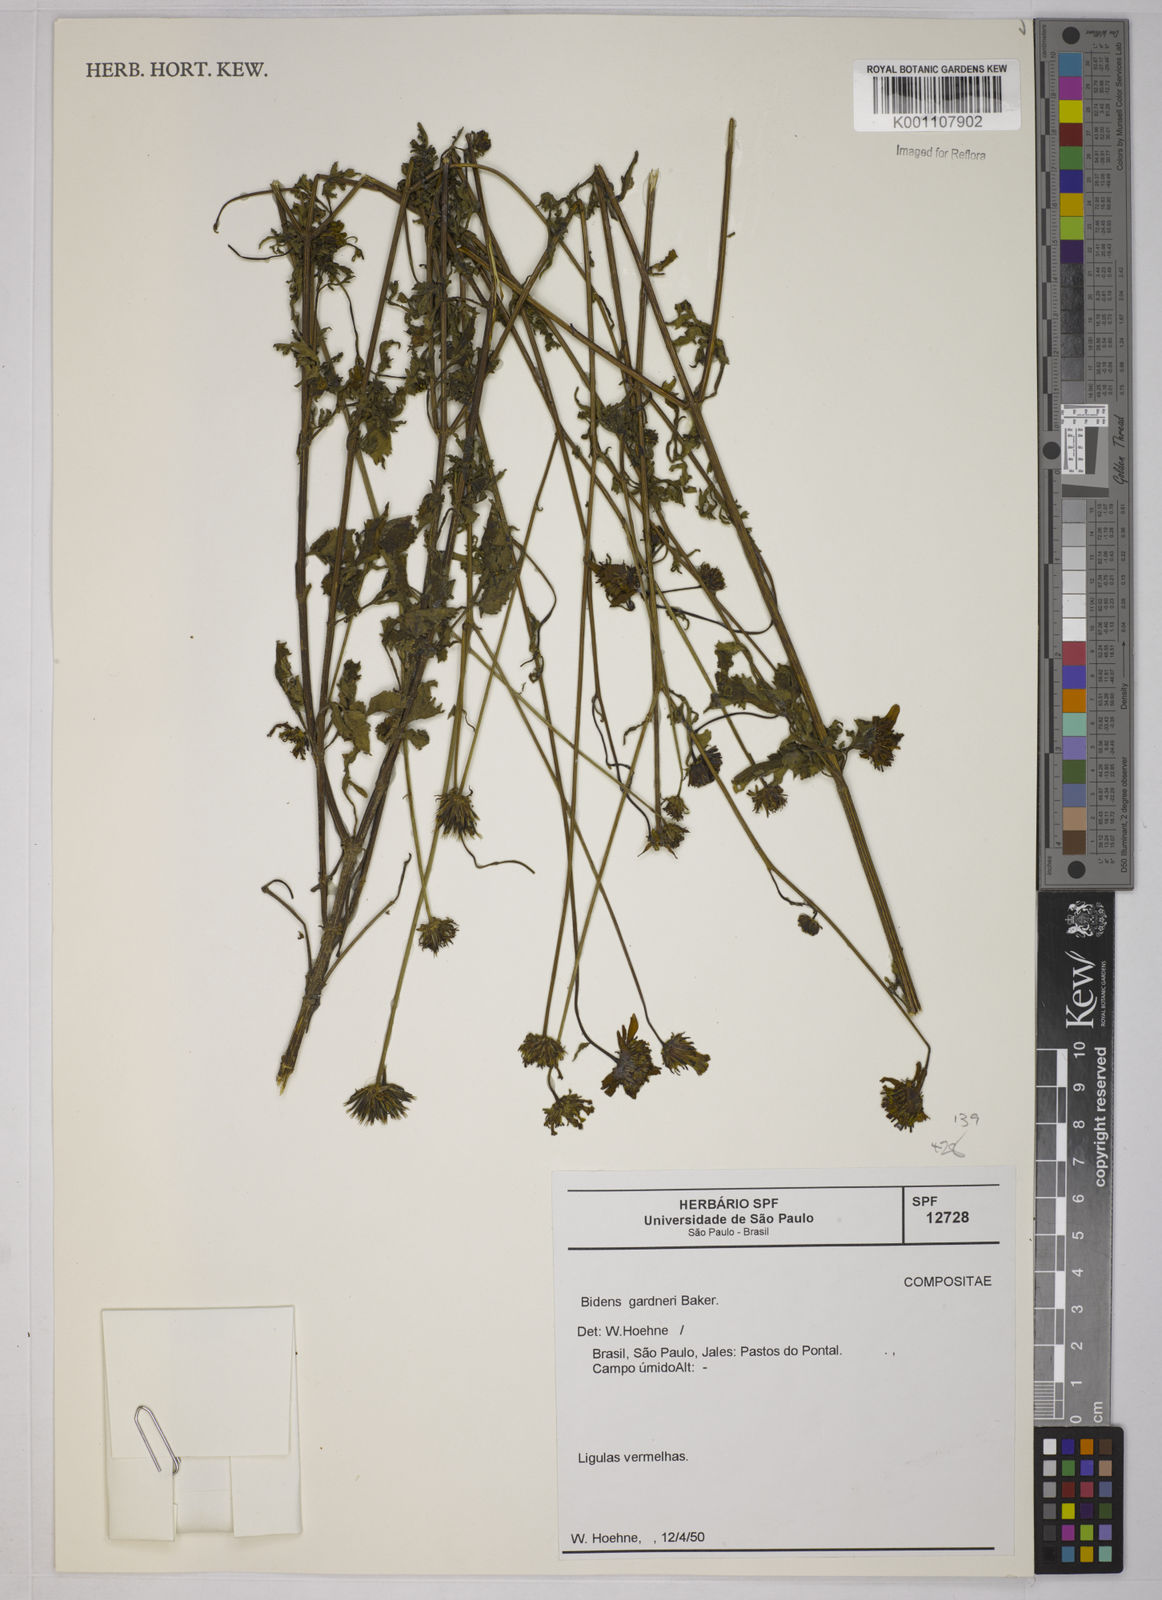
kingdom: Plantae
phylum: Tracheophyta
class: Magnoliopsida
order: Asterales
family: Asteraceae
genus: Bidens
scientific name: Bidens gardneri
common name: Ridge beggartick
